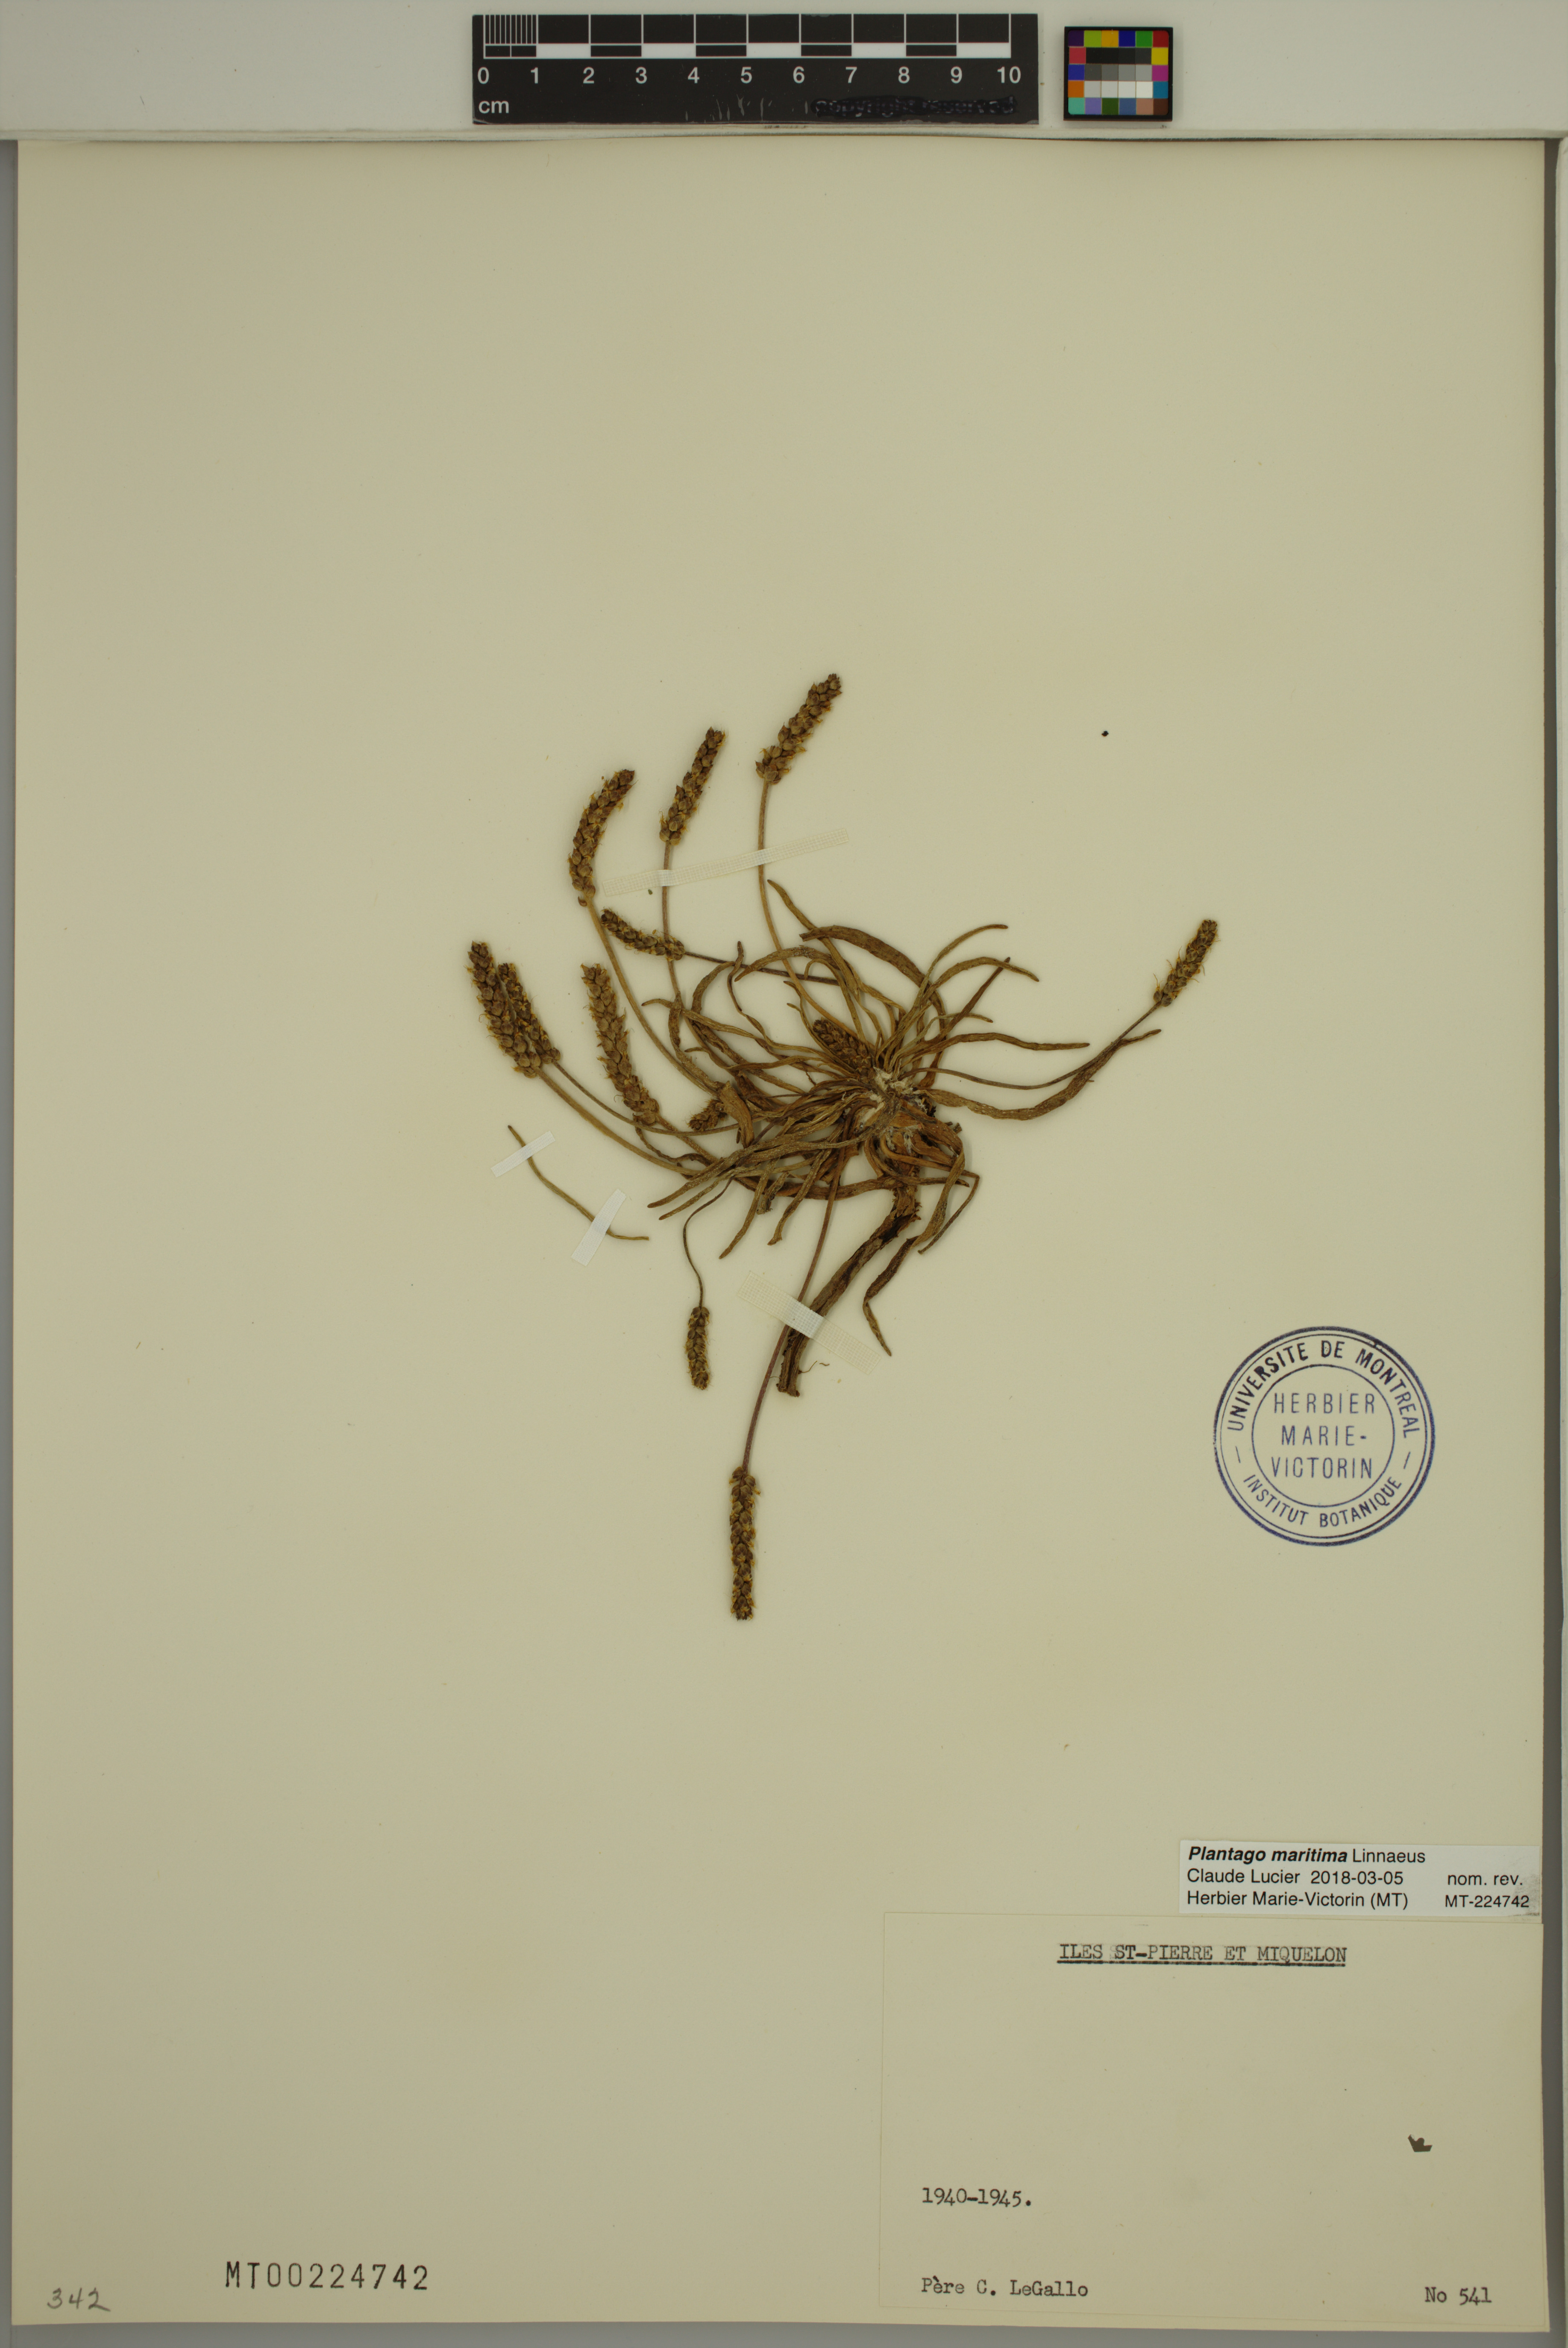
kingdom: Plantae
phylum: Tracheophyta
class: Magnoliopsida
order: Lamiales
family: Plantaginaceae
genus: Plantago
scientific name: Plantago maritima
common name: Sea plantain
